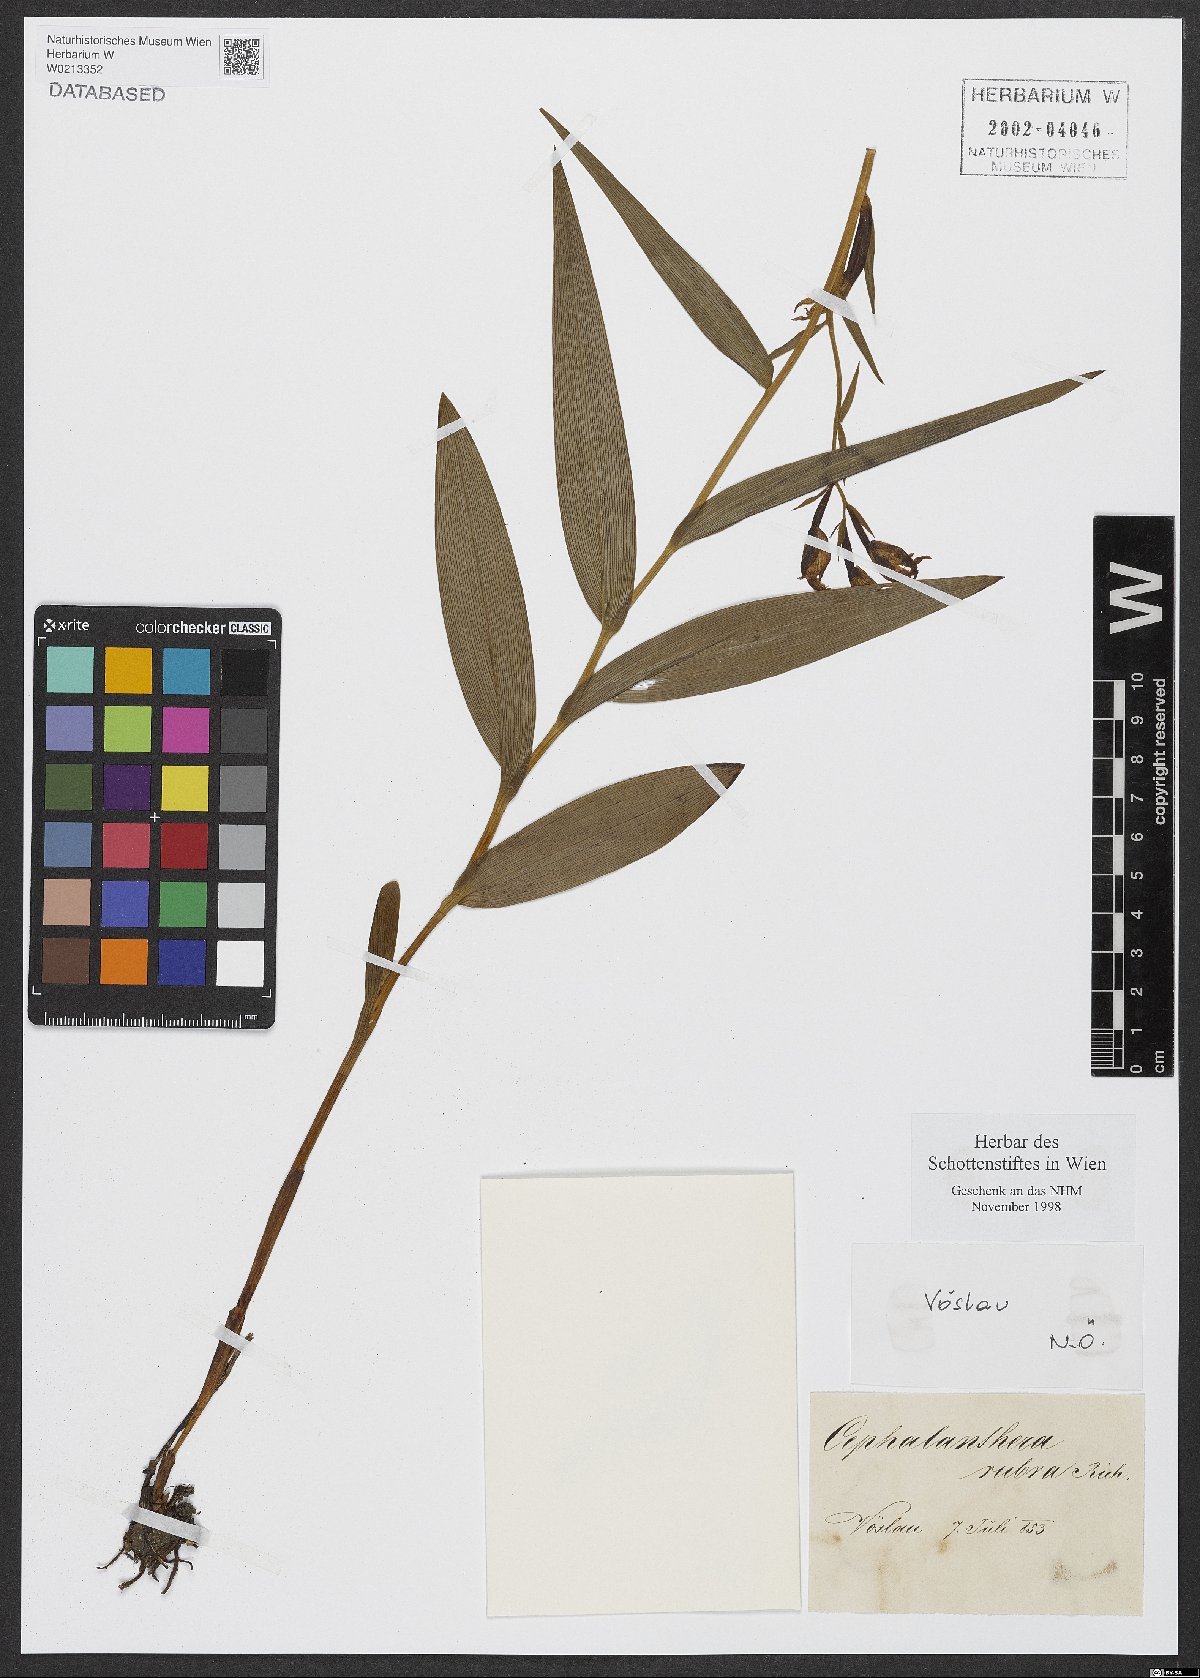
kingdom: Plantae
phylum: Tracheophyta
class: Liliopsida
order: Asparagales
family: Orchidaceae
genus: Cephalanthera
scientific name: Cephalanthera rubra
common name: Red helleborine
